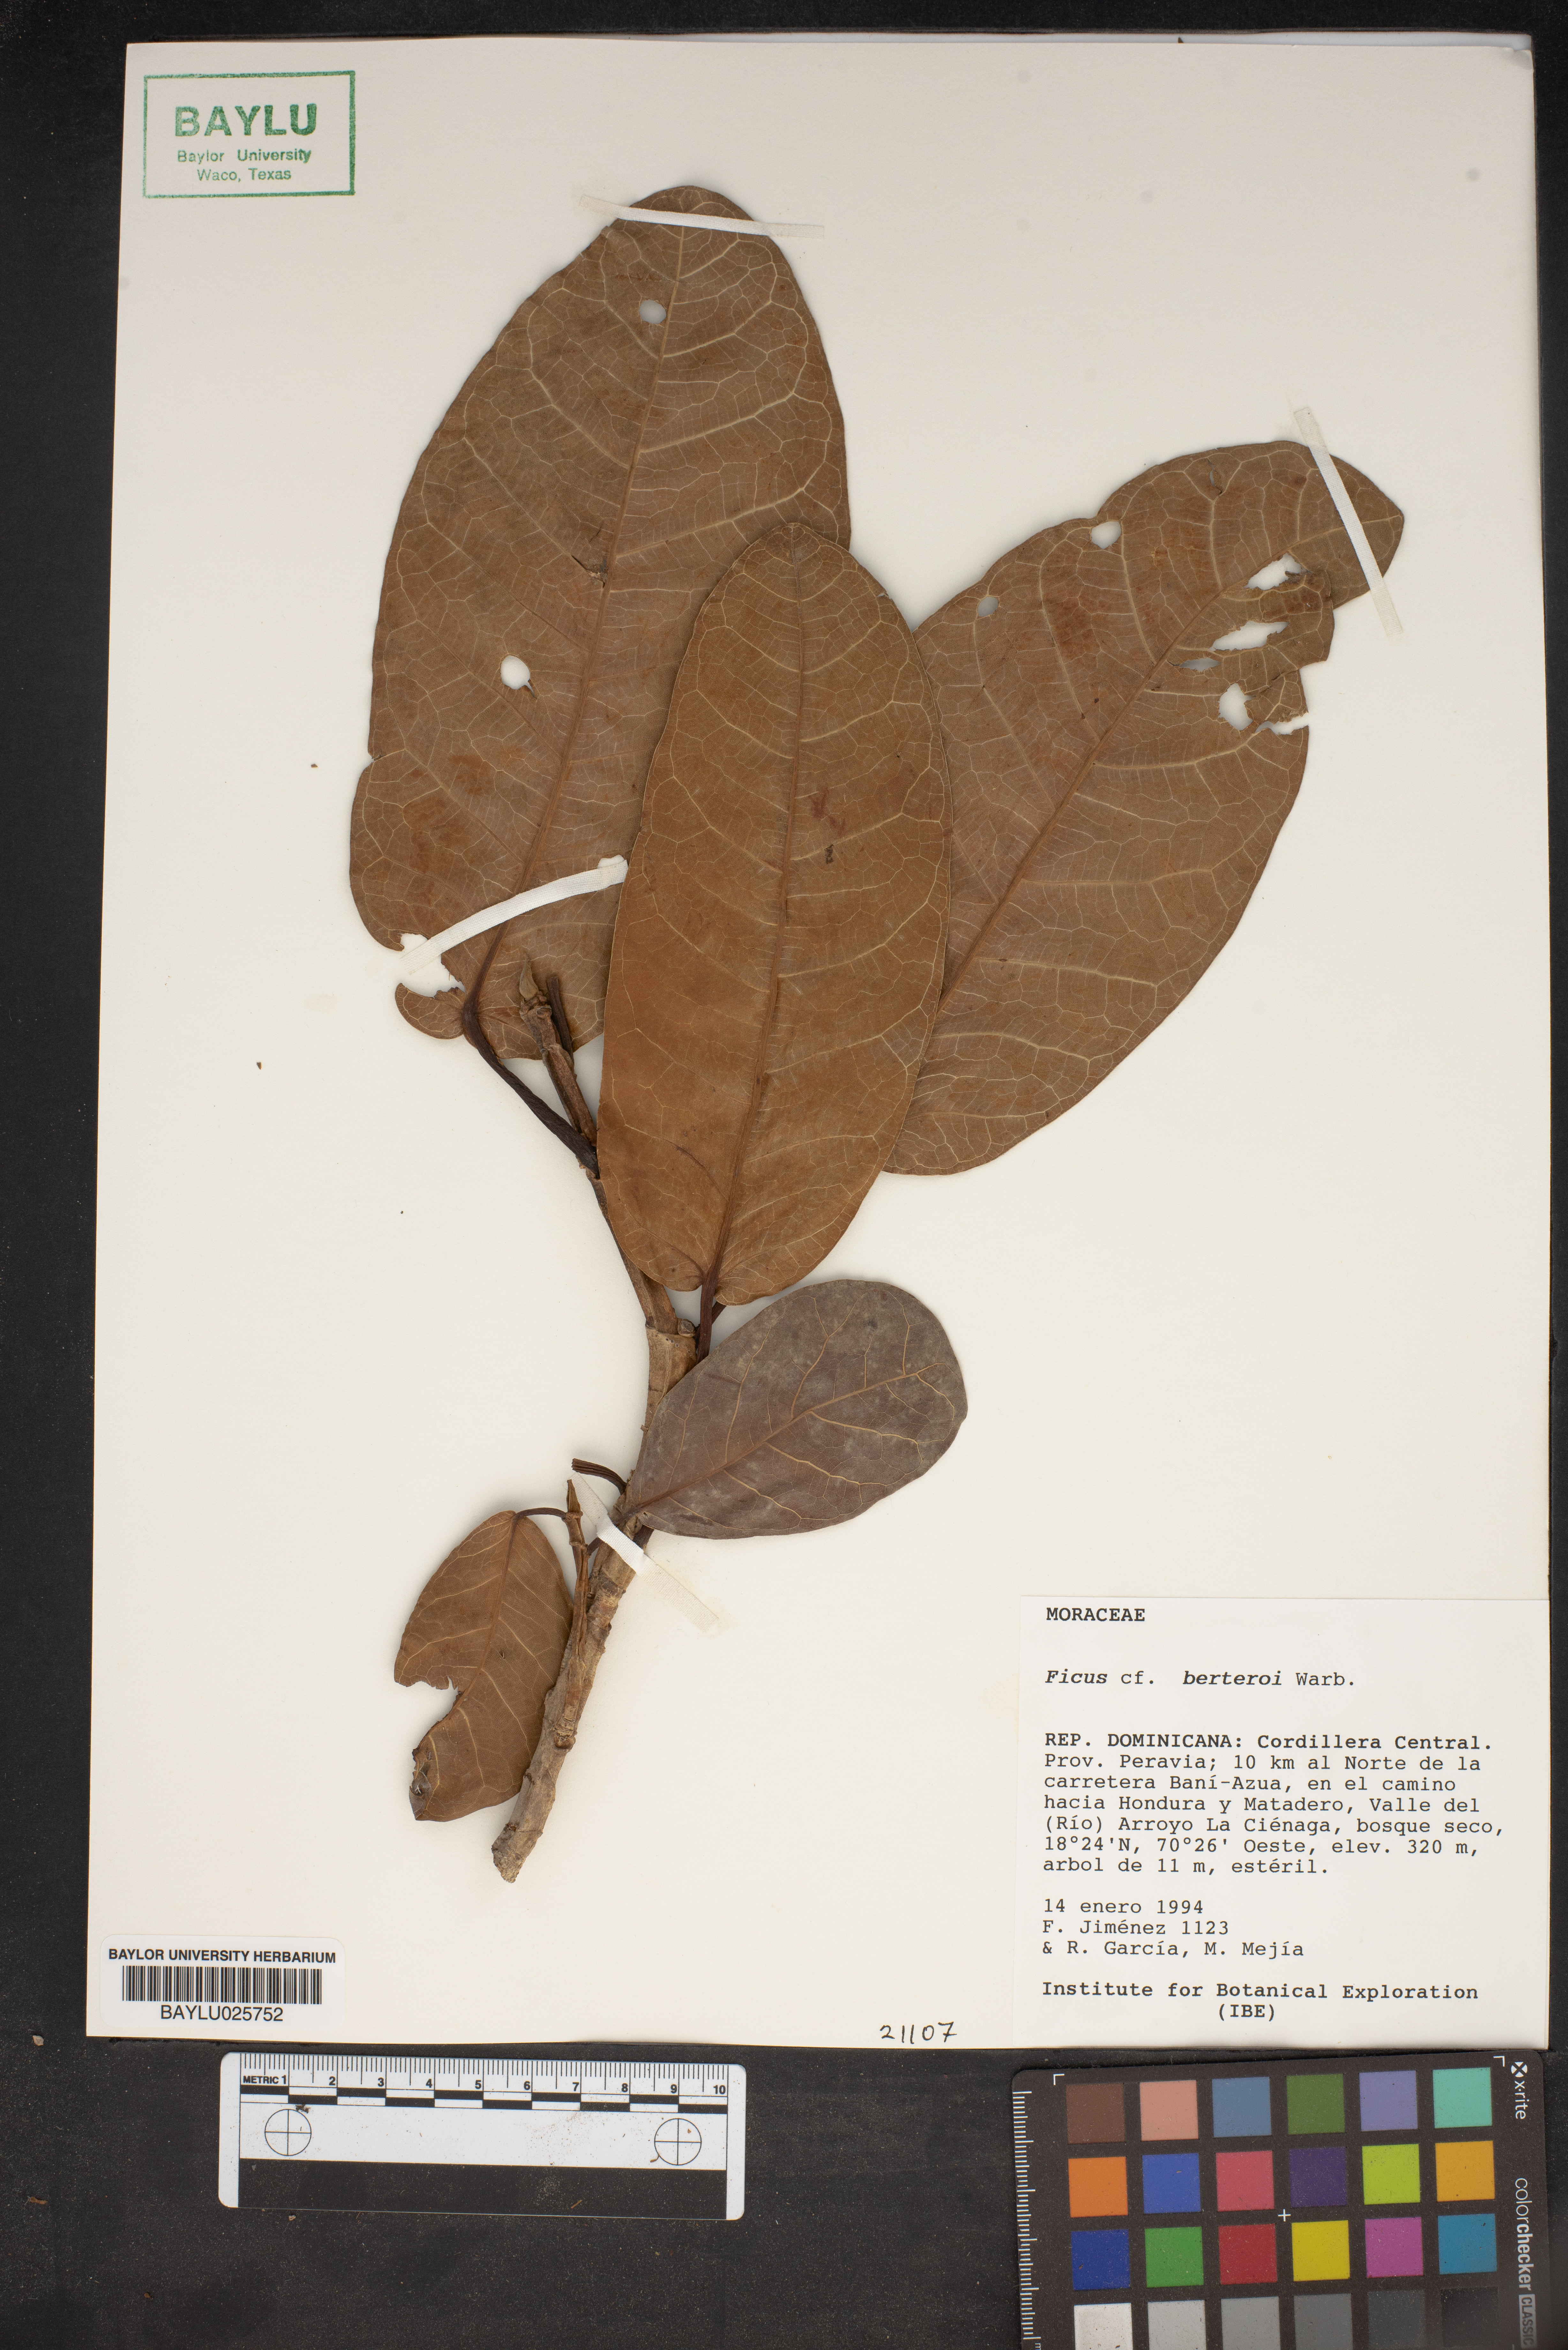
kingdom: Plantae
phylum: Tracheophyta
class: Magnoliopsida
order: Rosales
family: Moraceae
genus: Ficus
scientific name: Ficus crassinervia
